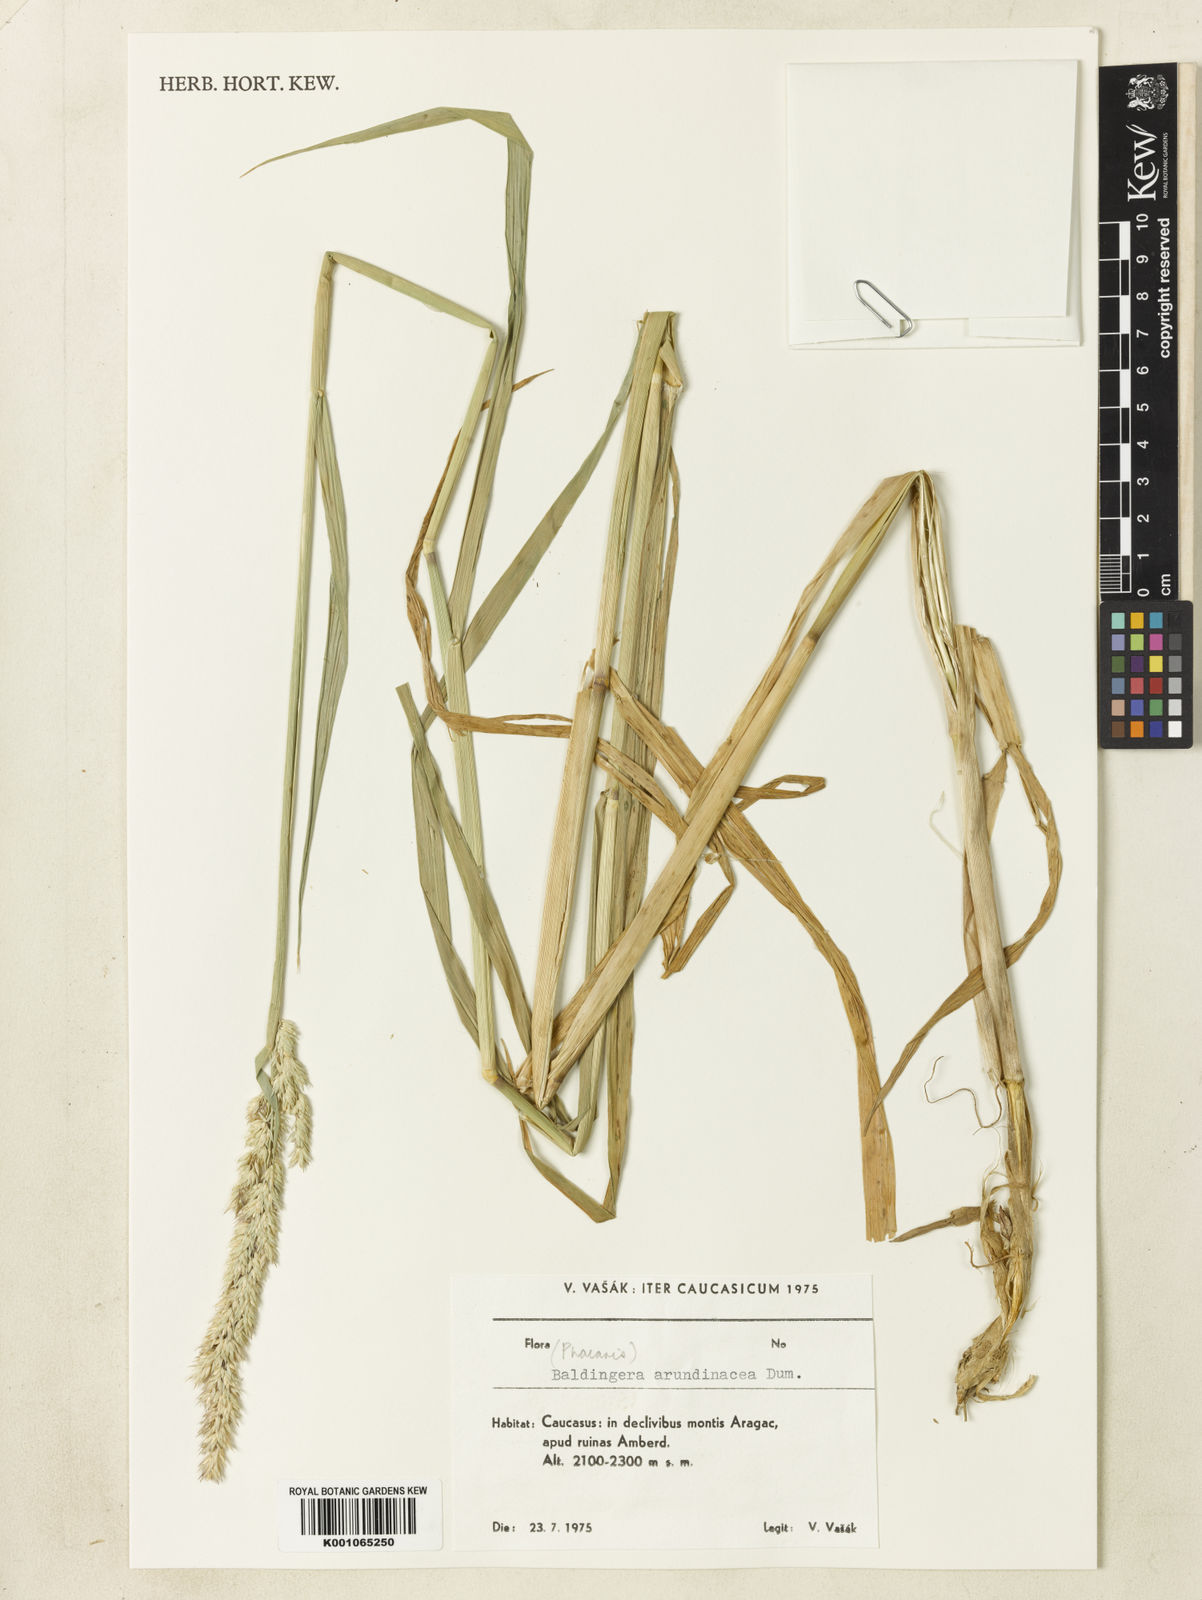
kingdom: Plantae
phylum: Tracheophyta
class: Liliopsida
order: Poales
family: Poaceae
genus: Phalaris
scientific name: Phalaris arundinacea
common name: Reed canary-grass
